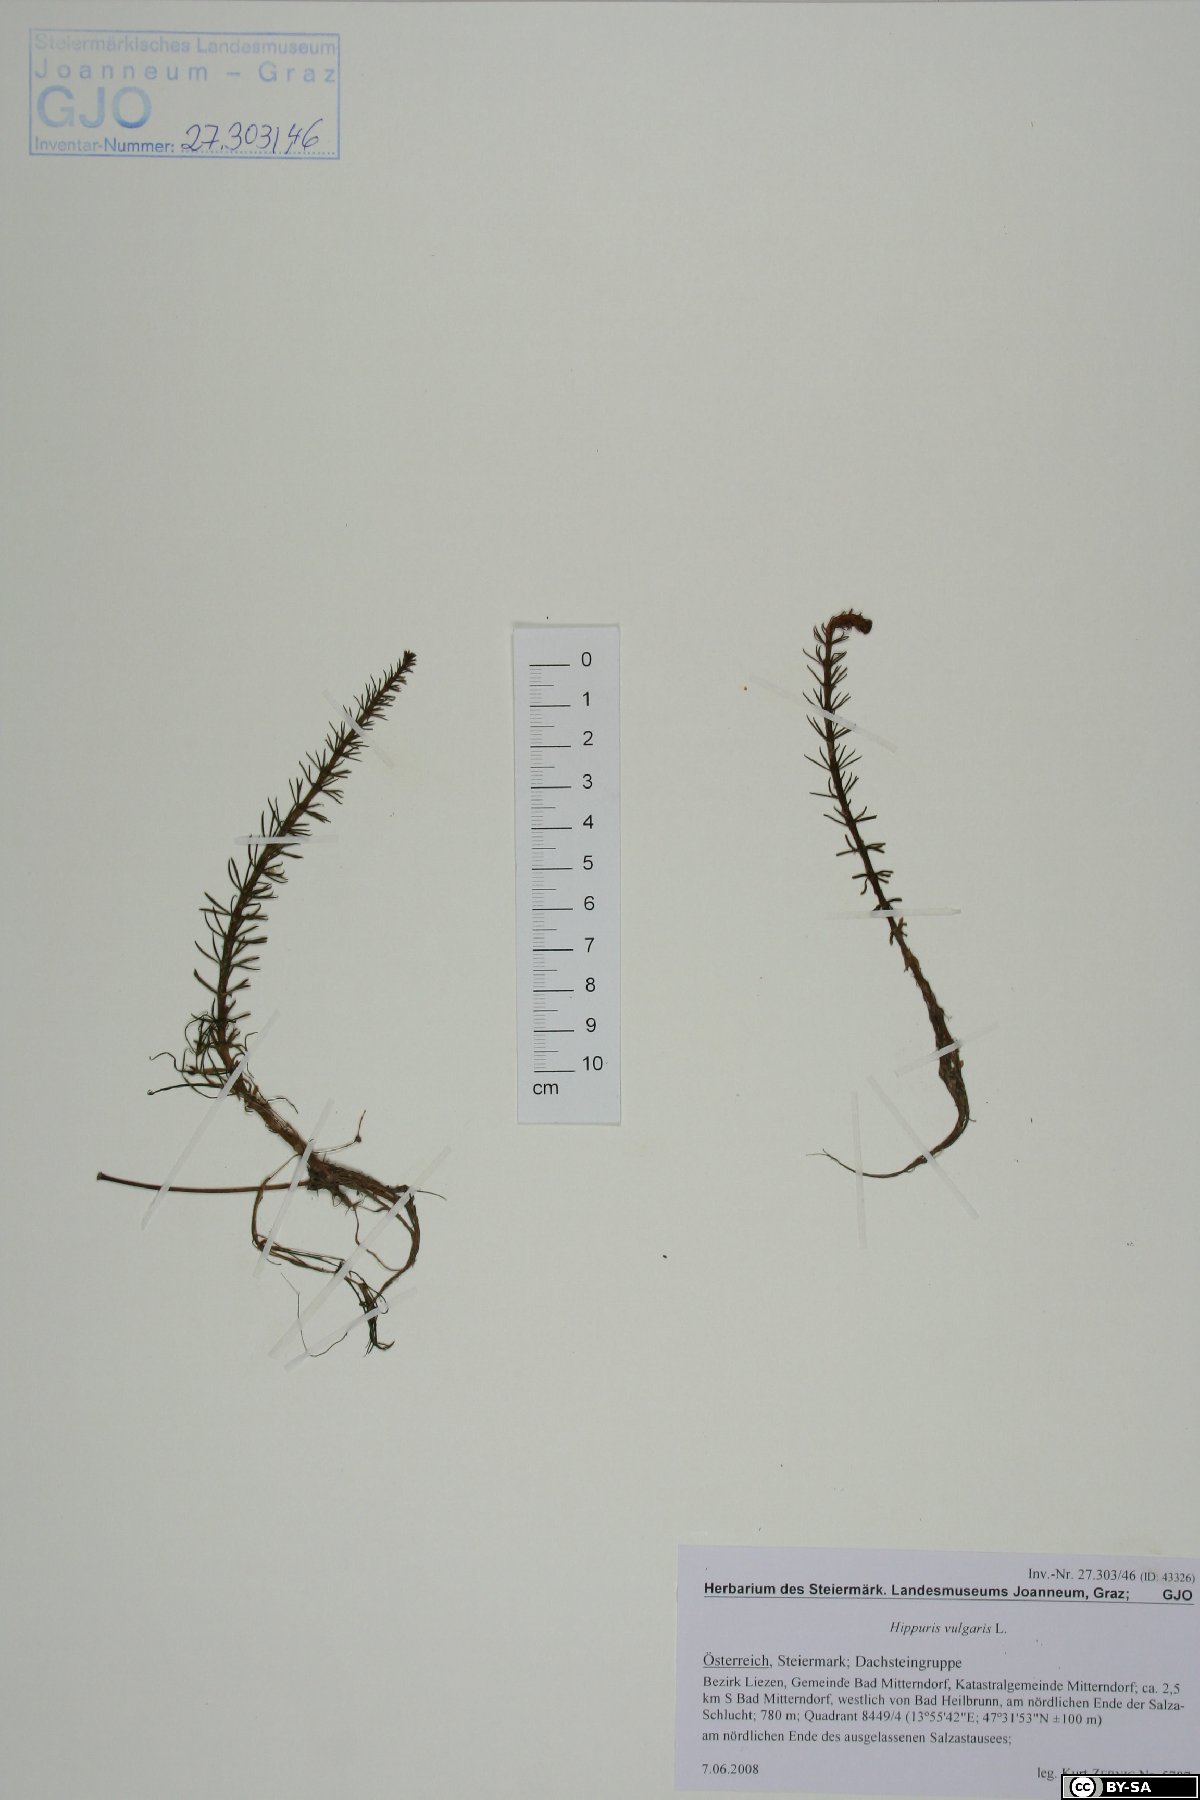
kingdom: Plantae
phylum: Tracheophyta
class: Magnoliopsida
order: Lamiales
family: Plantaginaceae
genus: Hippuris
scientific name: Hippuris vulgaris
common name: Mare's-tail
